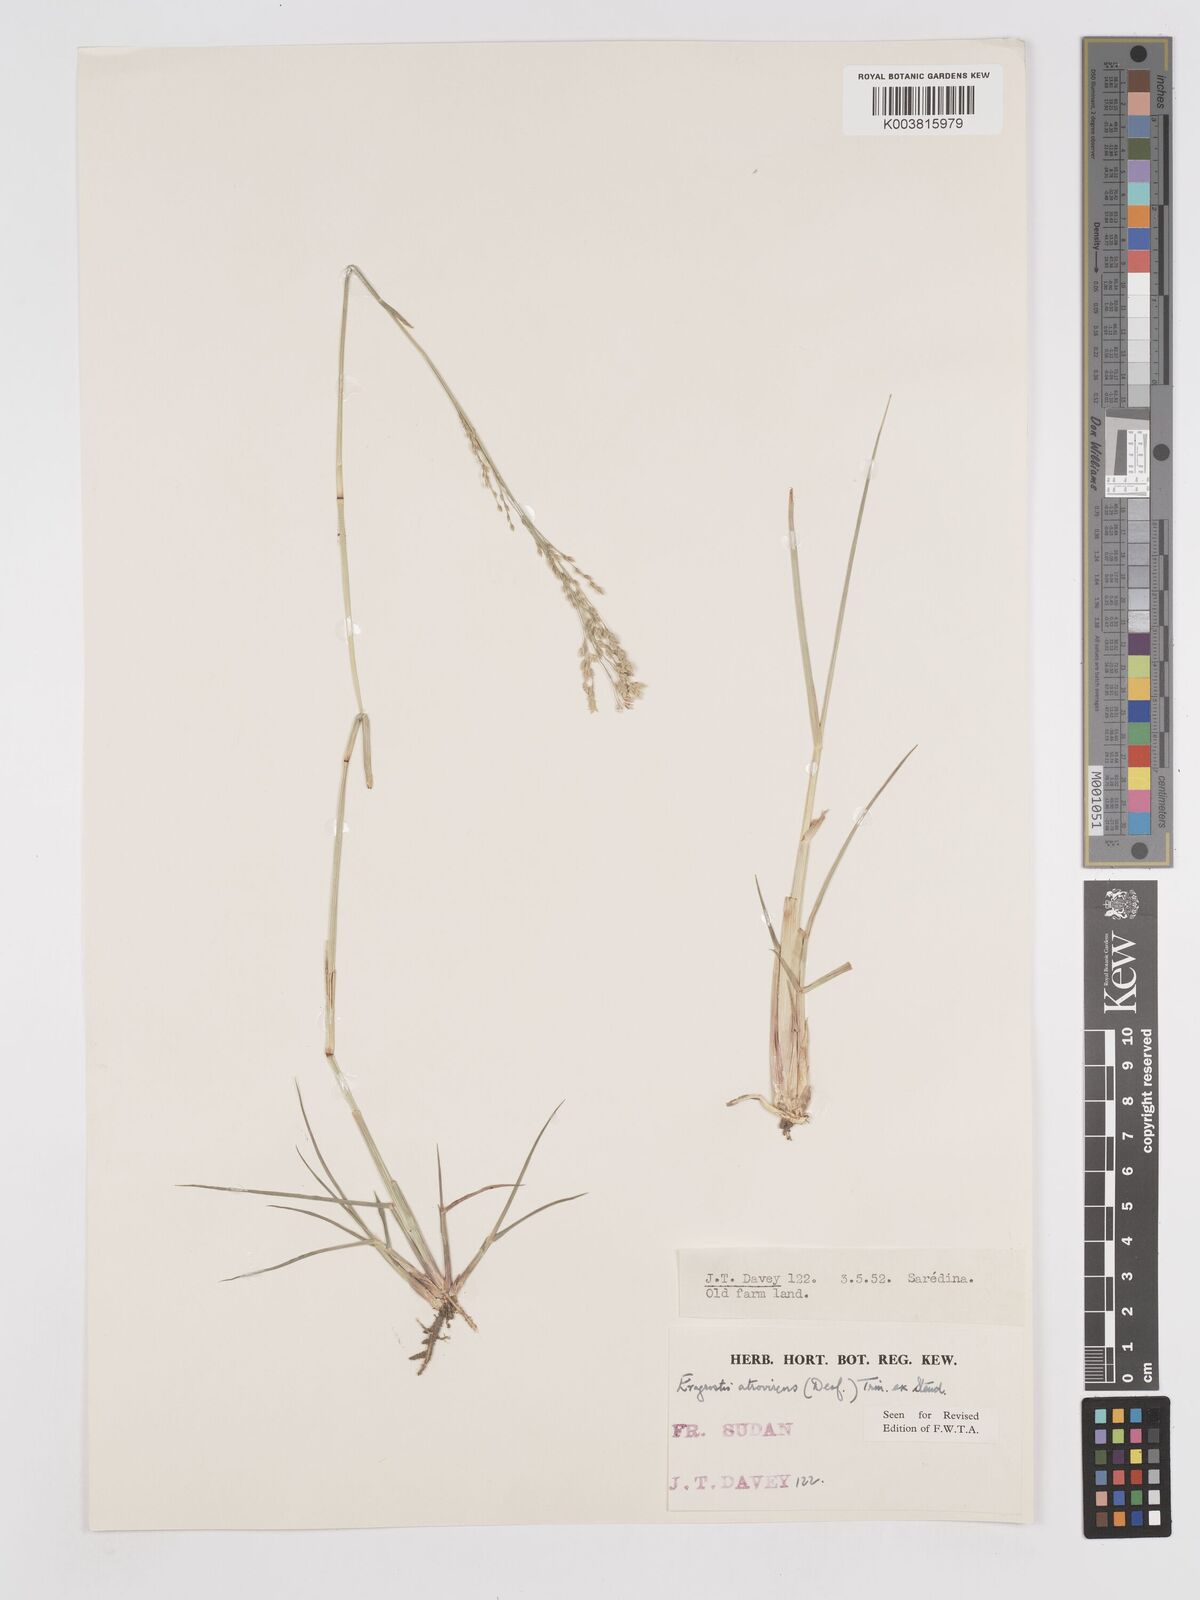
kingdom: Plantae
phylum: Tracheophyta
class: Liliopsida
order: Poales
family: Poaceae
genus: Eragrostis
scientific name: Eragrostis atrovirens
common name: Thalia lovegrass
